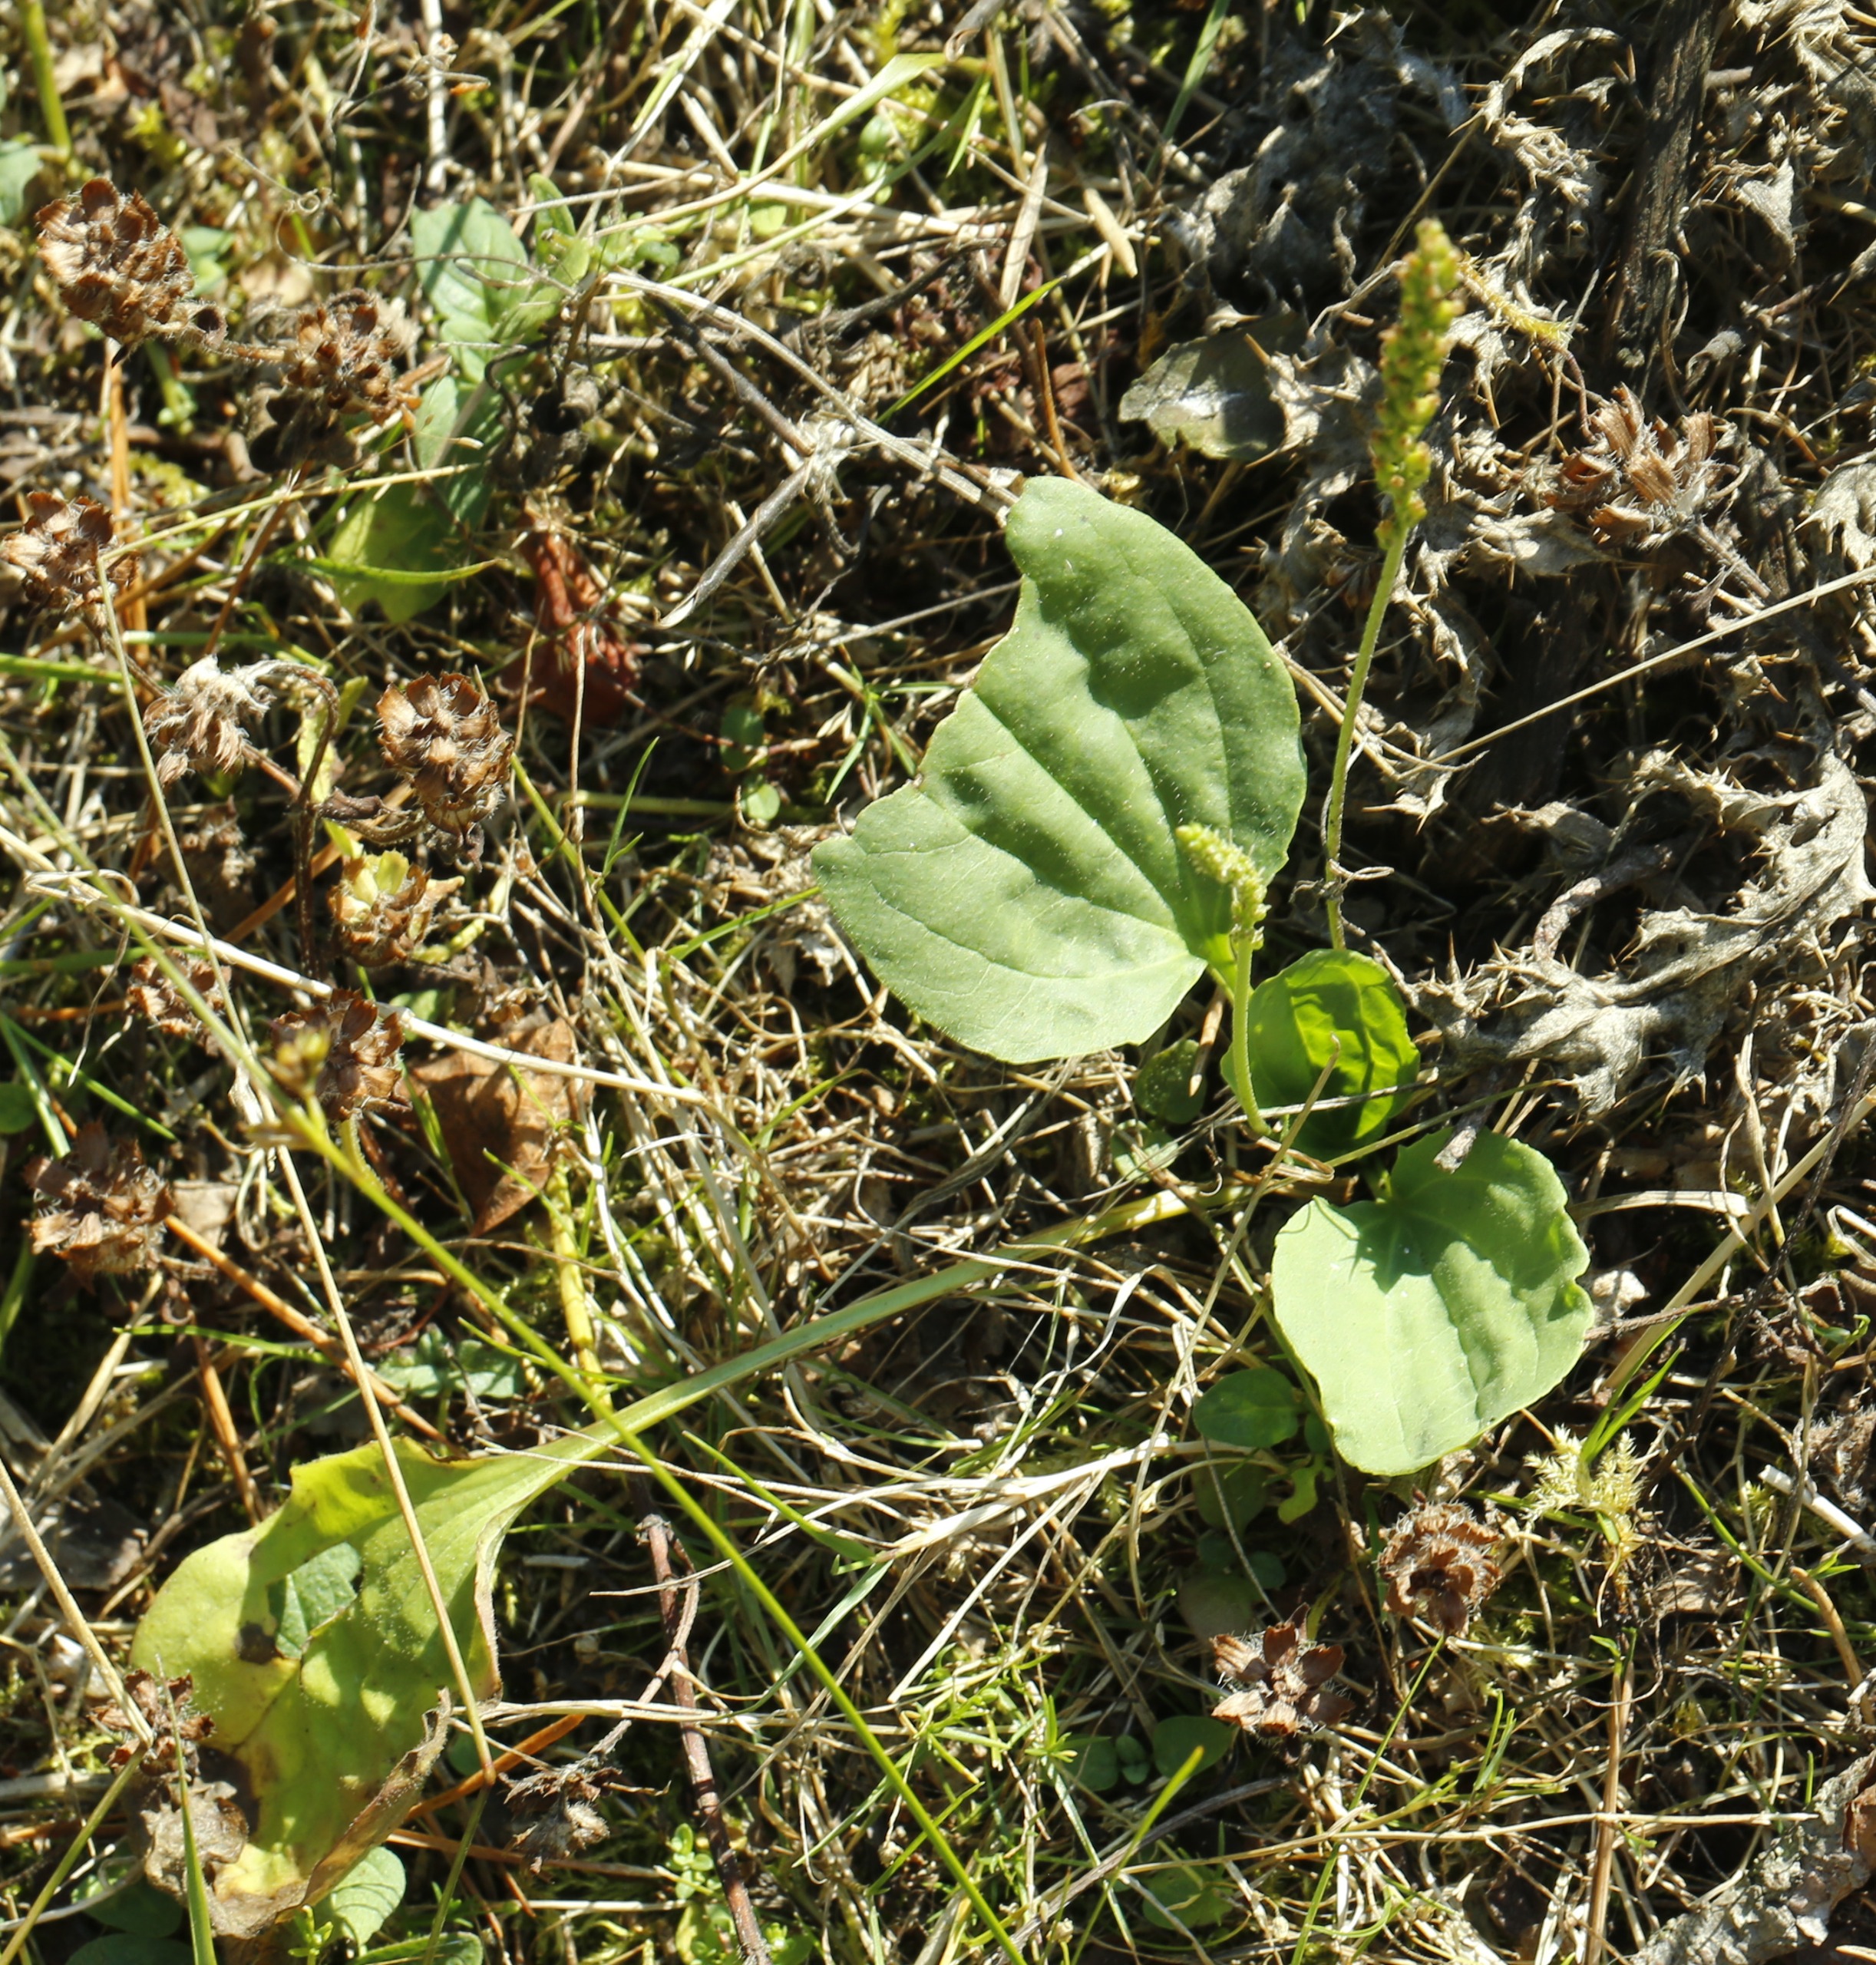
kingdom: Plantae
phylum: Tracheophyta
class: Magnoliopsida
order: Lamiales
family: Plantaginaceae
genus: Plantago
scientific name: Plantago major
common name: Glat vejbred
